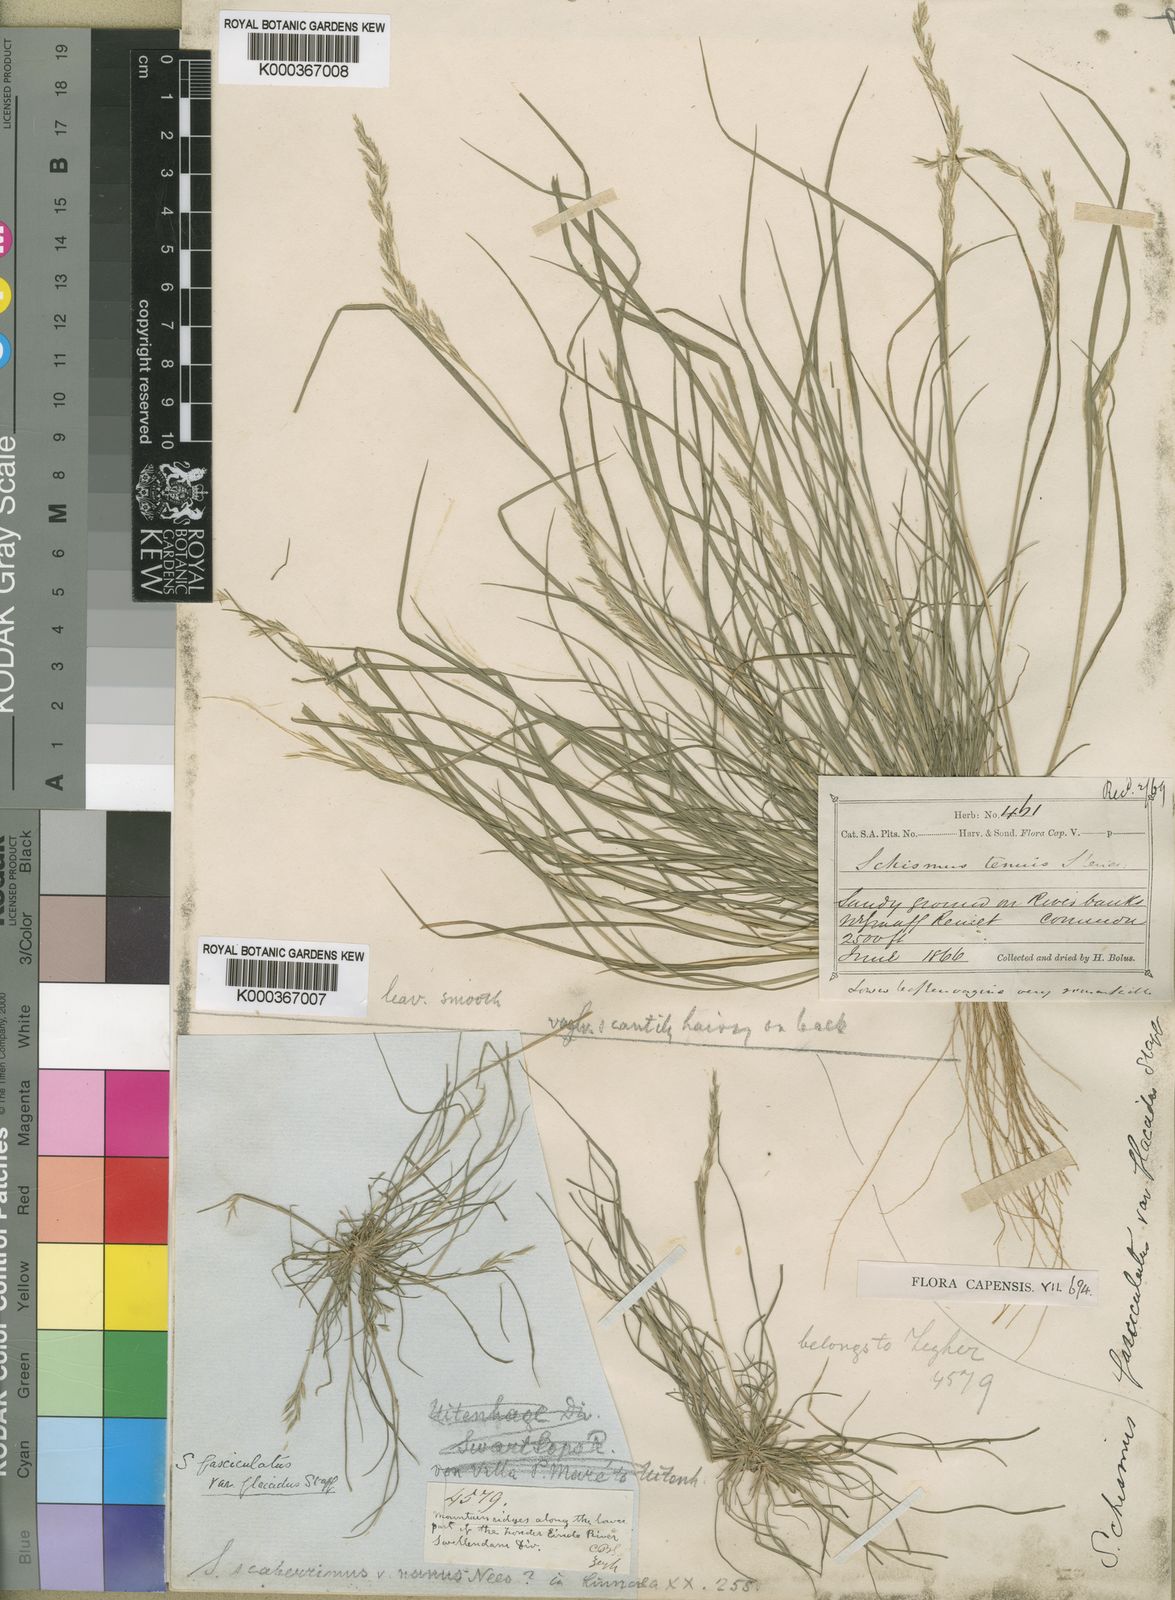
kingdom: Plantae
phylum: Tracheophyta
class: Liliopsida
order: Poales
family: Poaceae
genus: Schismus
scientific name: Schismus barbatus
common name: Kelch-grass
